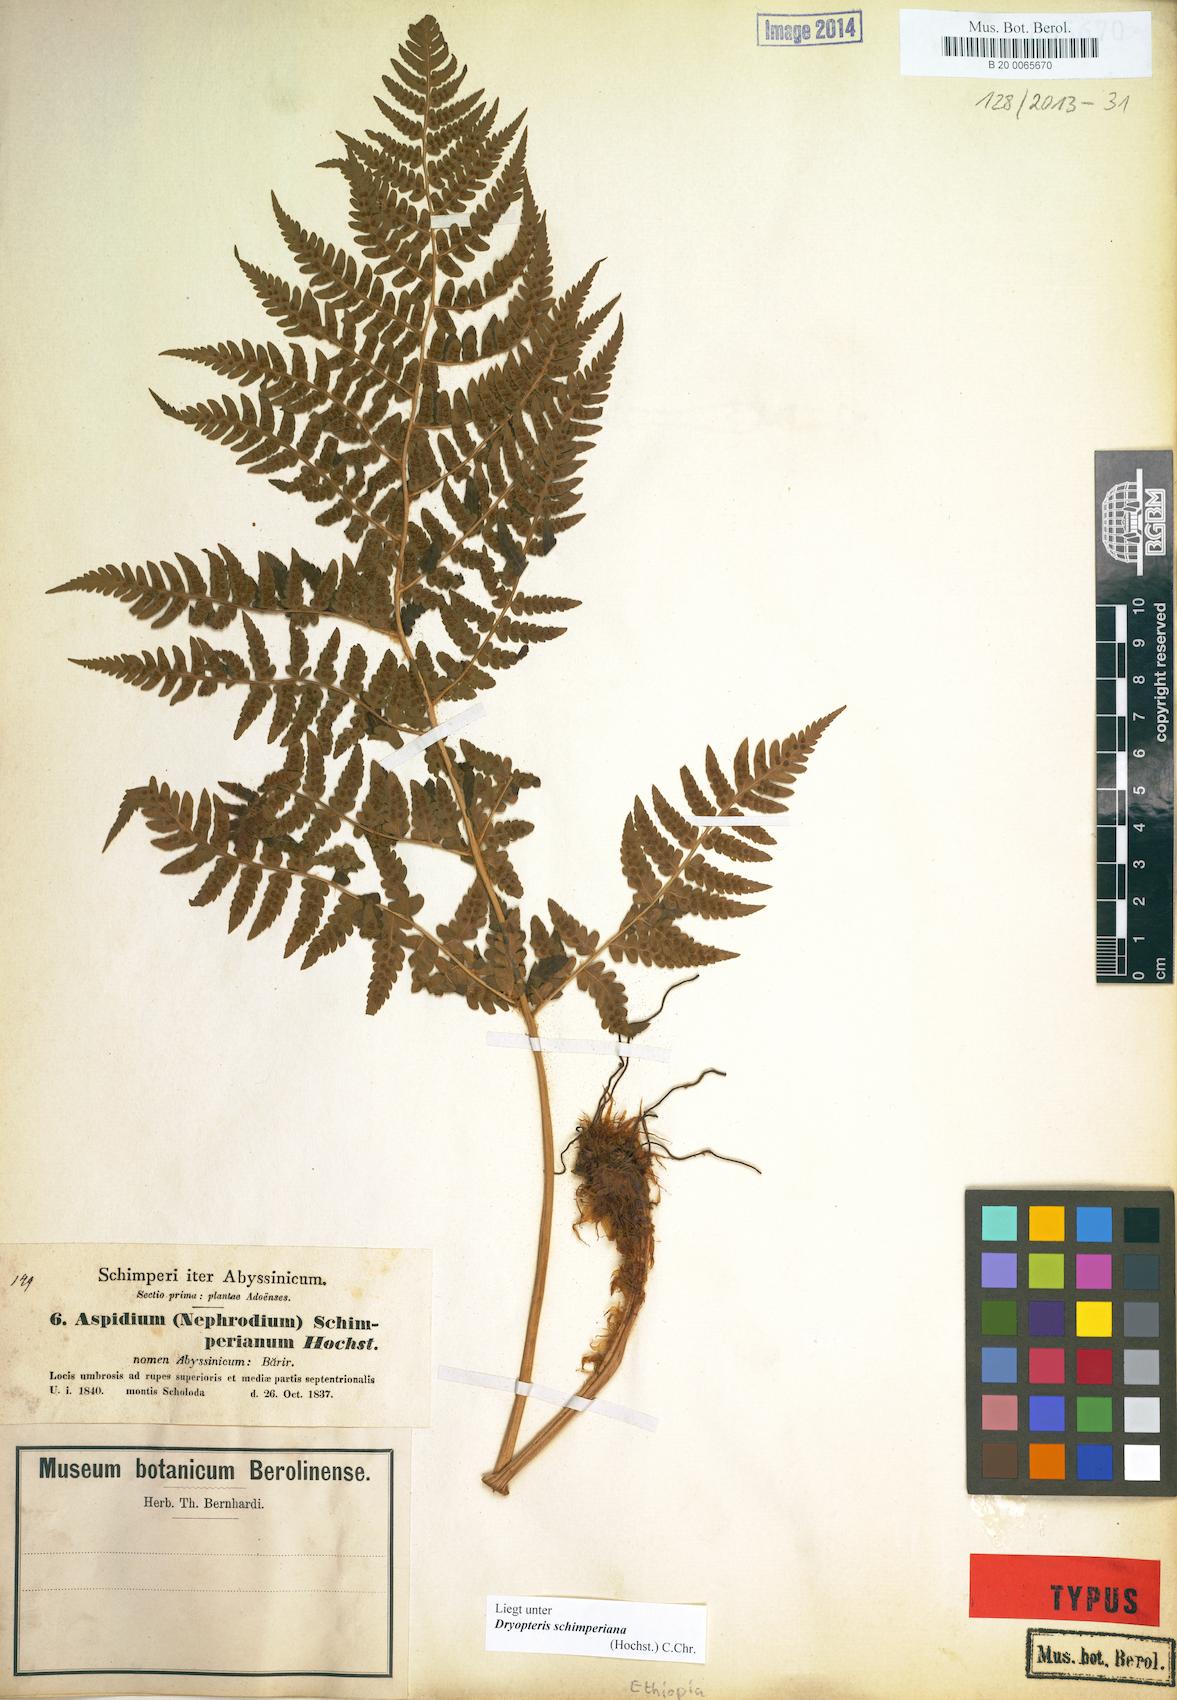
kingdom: Plantae
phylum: Tracheophyta
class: Polypodiopsida
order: Polypodiales
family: Dryopteridaceae
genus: Dryopteris
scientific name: Dryopteris schimperiana
